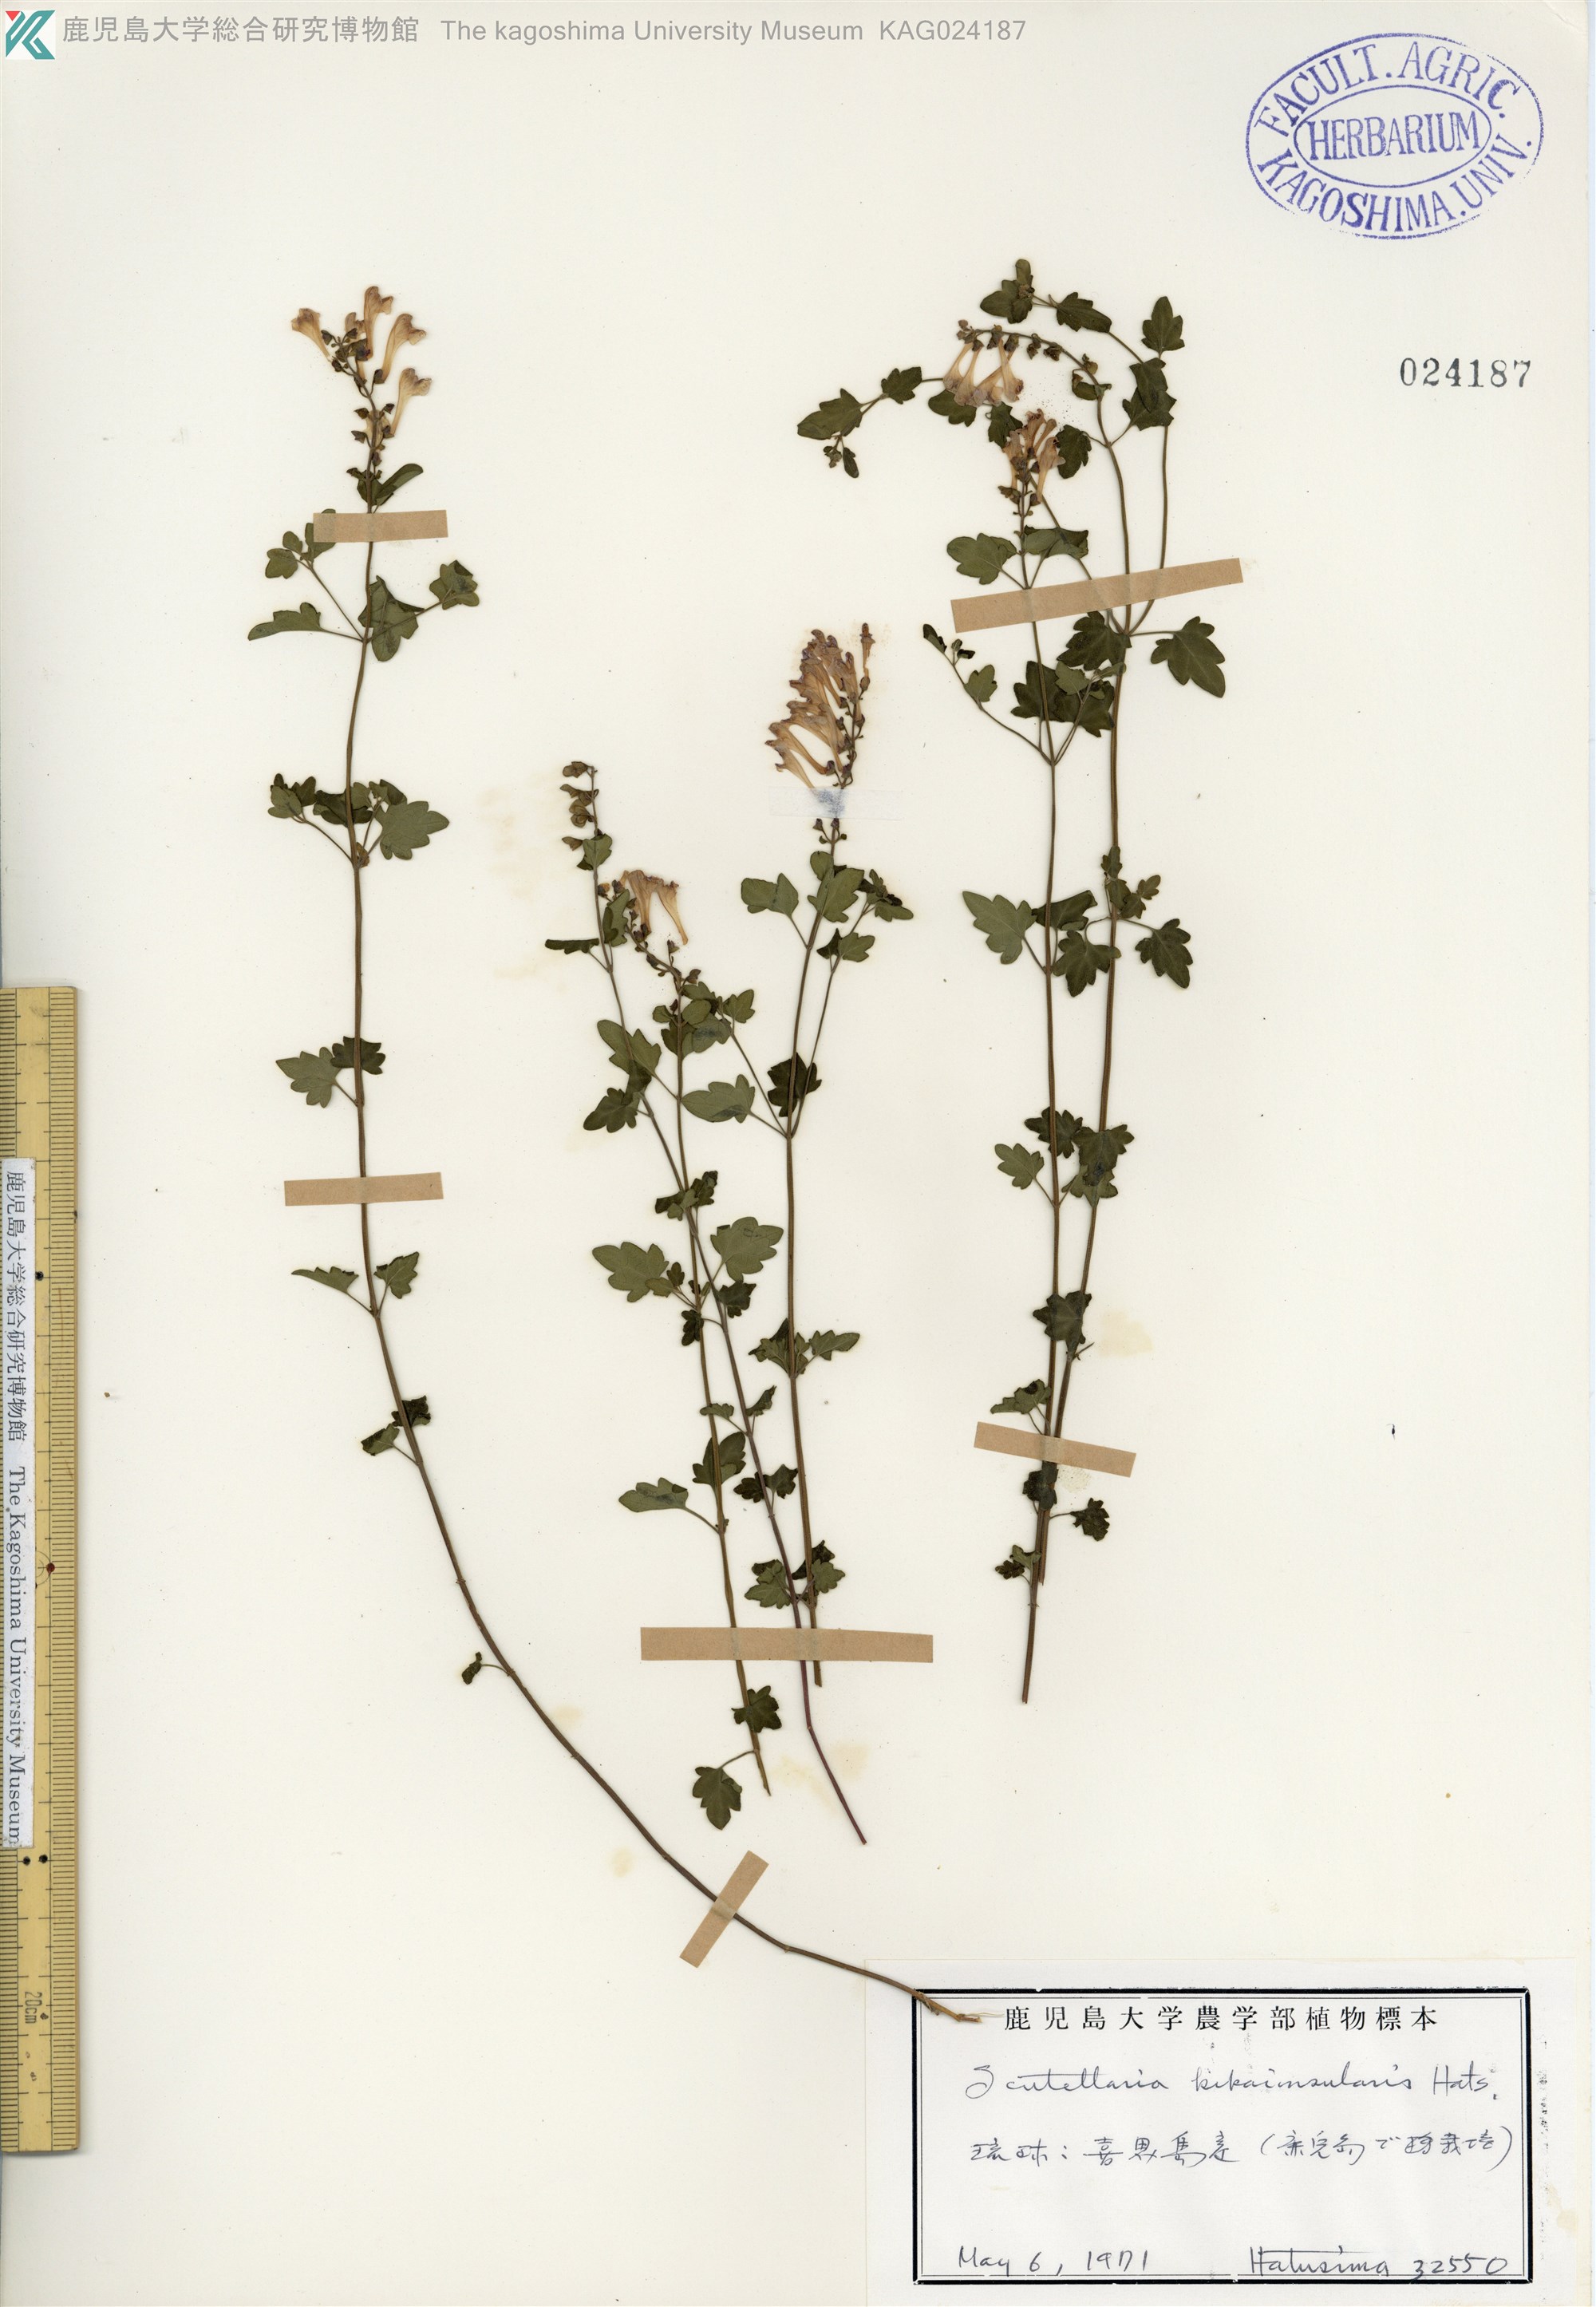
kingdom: Plantae
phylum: Tracheophyta
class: Magnoliopsida
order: Lamiales
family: Lamiaceae
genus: Scutellaria
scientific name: Scutellaria kikai-insularis
